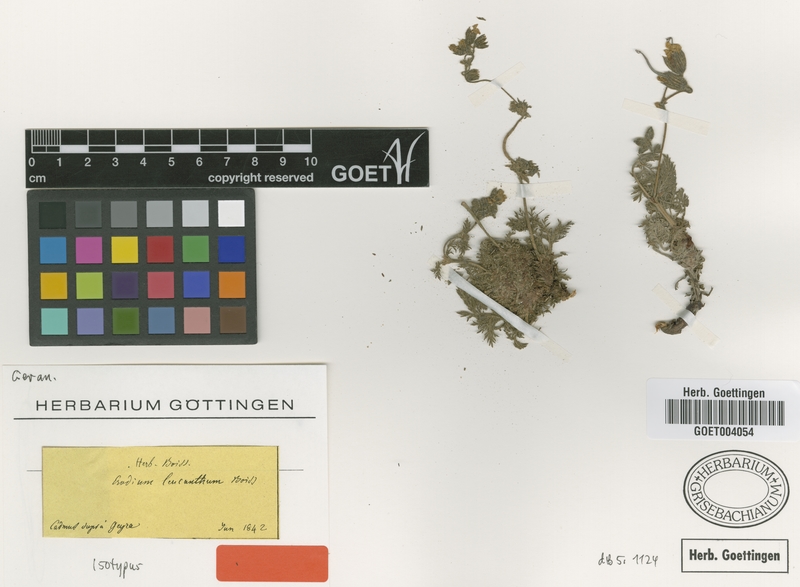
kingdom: Plantae
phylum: Tracheophyta
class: Magnoliopsida
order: Geraniales
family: Geraniaceae
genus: Erodium
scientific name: Erodium trichomanifolium
